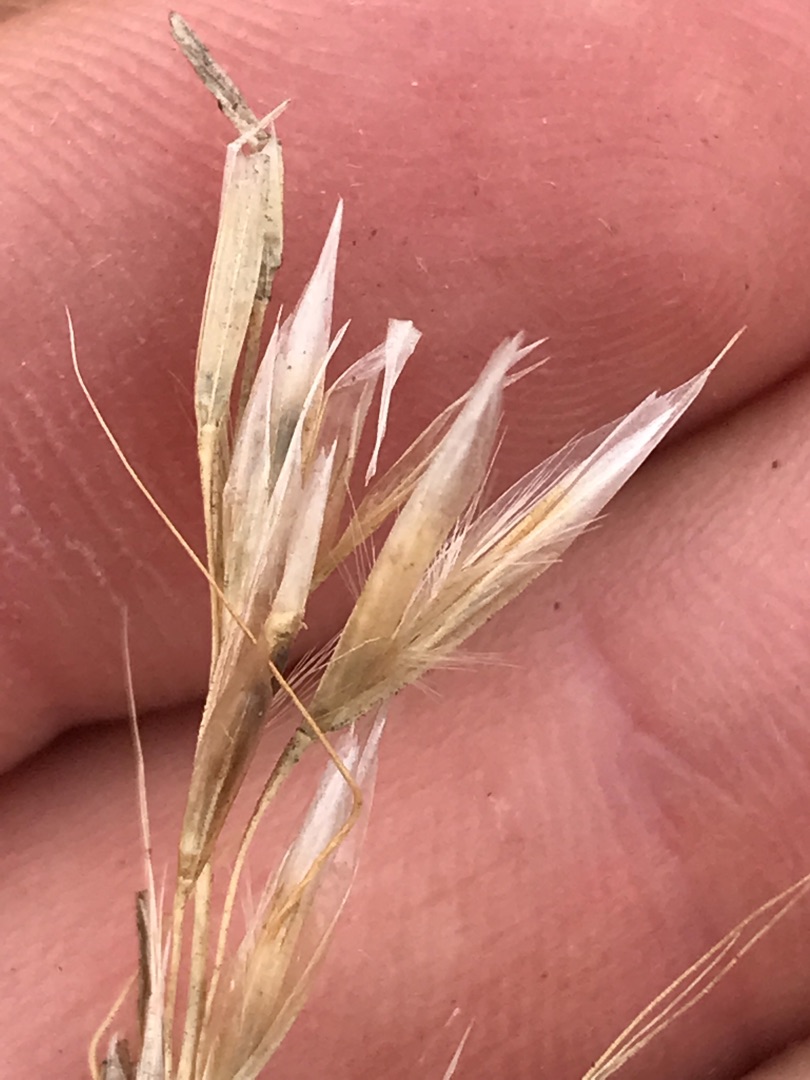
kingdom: Plantae
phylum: Tracheophyta
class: Liliopsida
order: Poales
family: Poaceae
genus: Avenula
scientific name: Avenula pubescens
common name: Dunet havre
